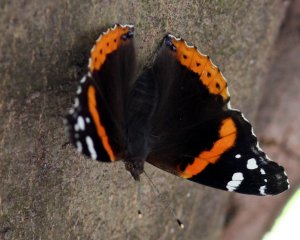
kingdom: Animalia
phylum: Arthropoda
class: Insecta
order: Lepidoptera
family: Nymphalidae
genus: Vanessa
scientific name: Vanessa atalanta
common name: Red Admiral
